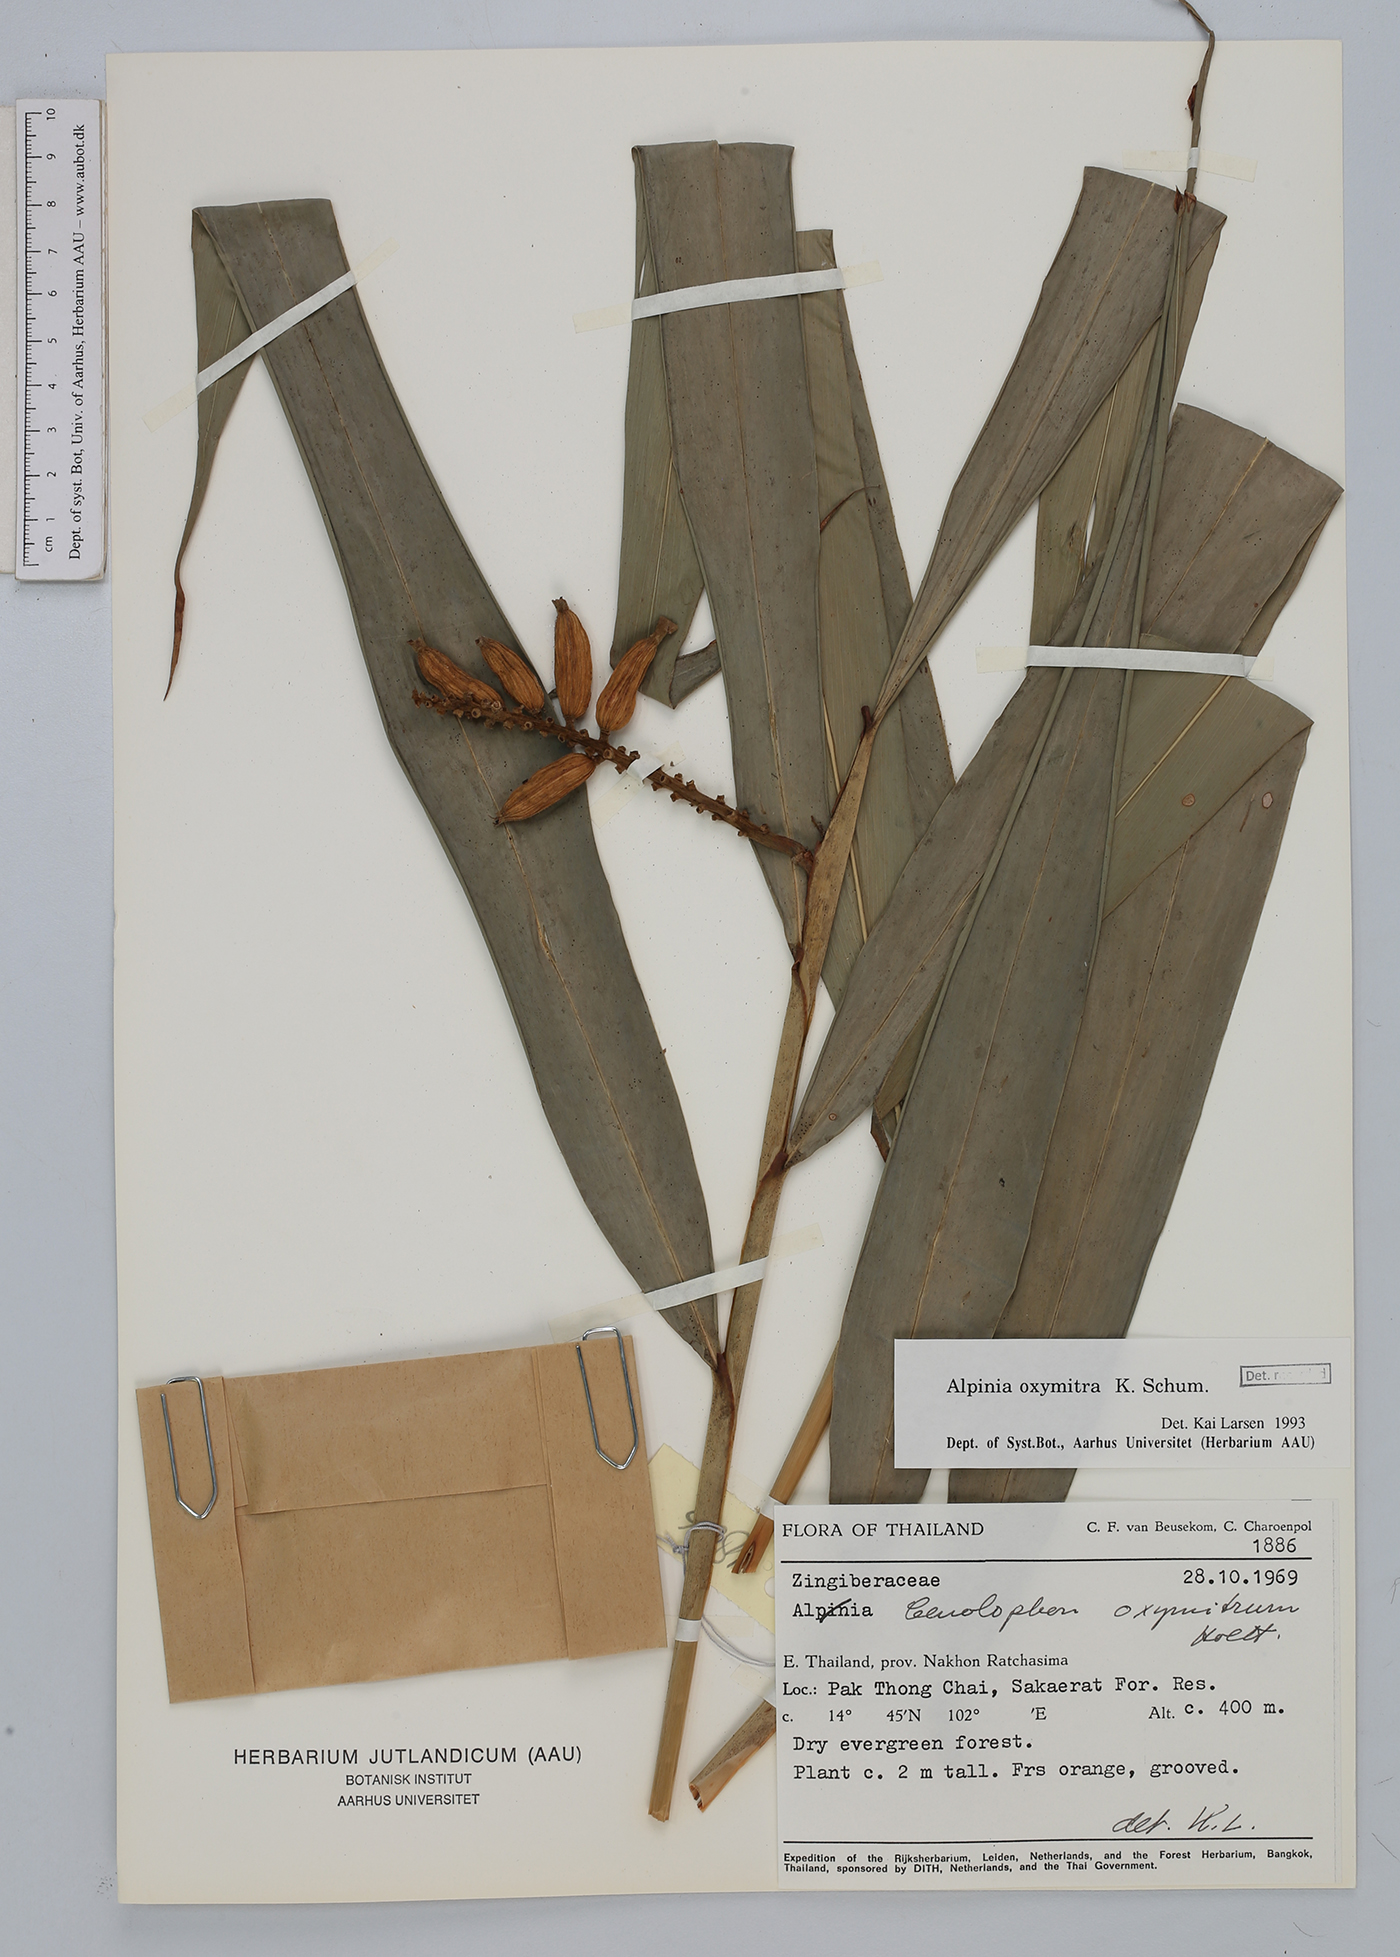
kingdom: Plantae
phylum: Tracheophyta
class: Liliopsida
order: Zingiberales
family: Zingiberaceae
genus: Alpinia
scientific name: Alpinia oxymitra
